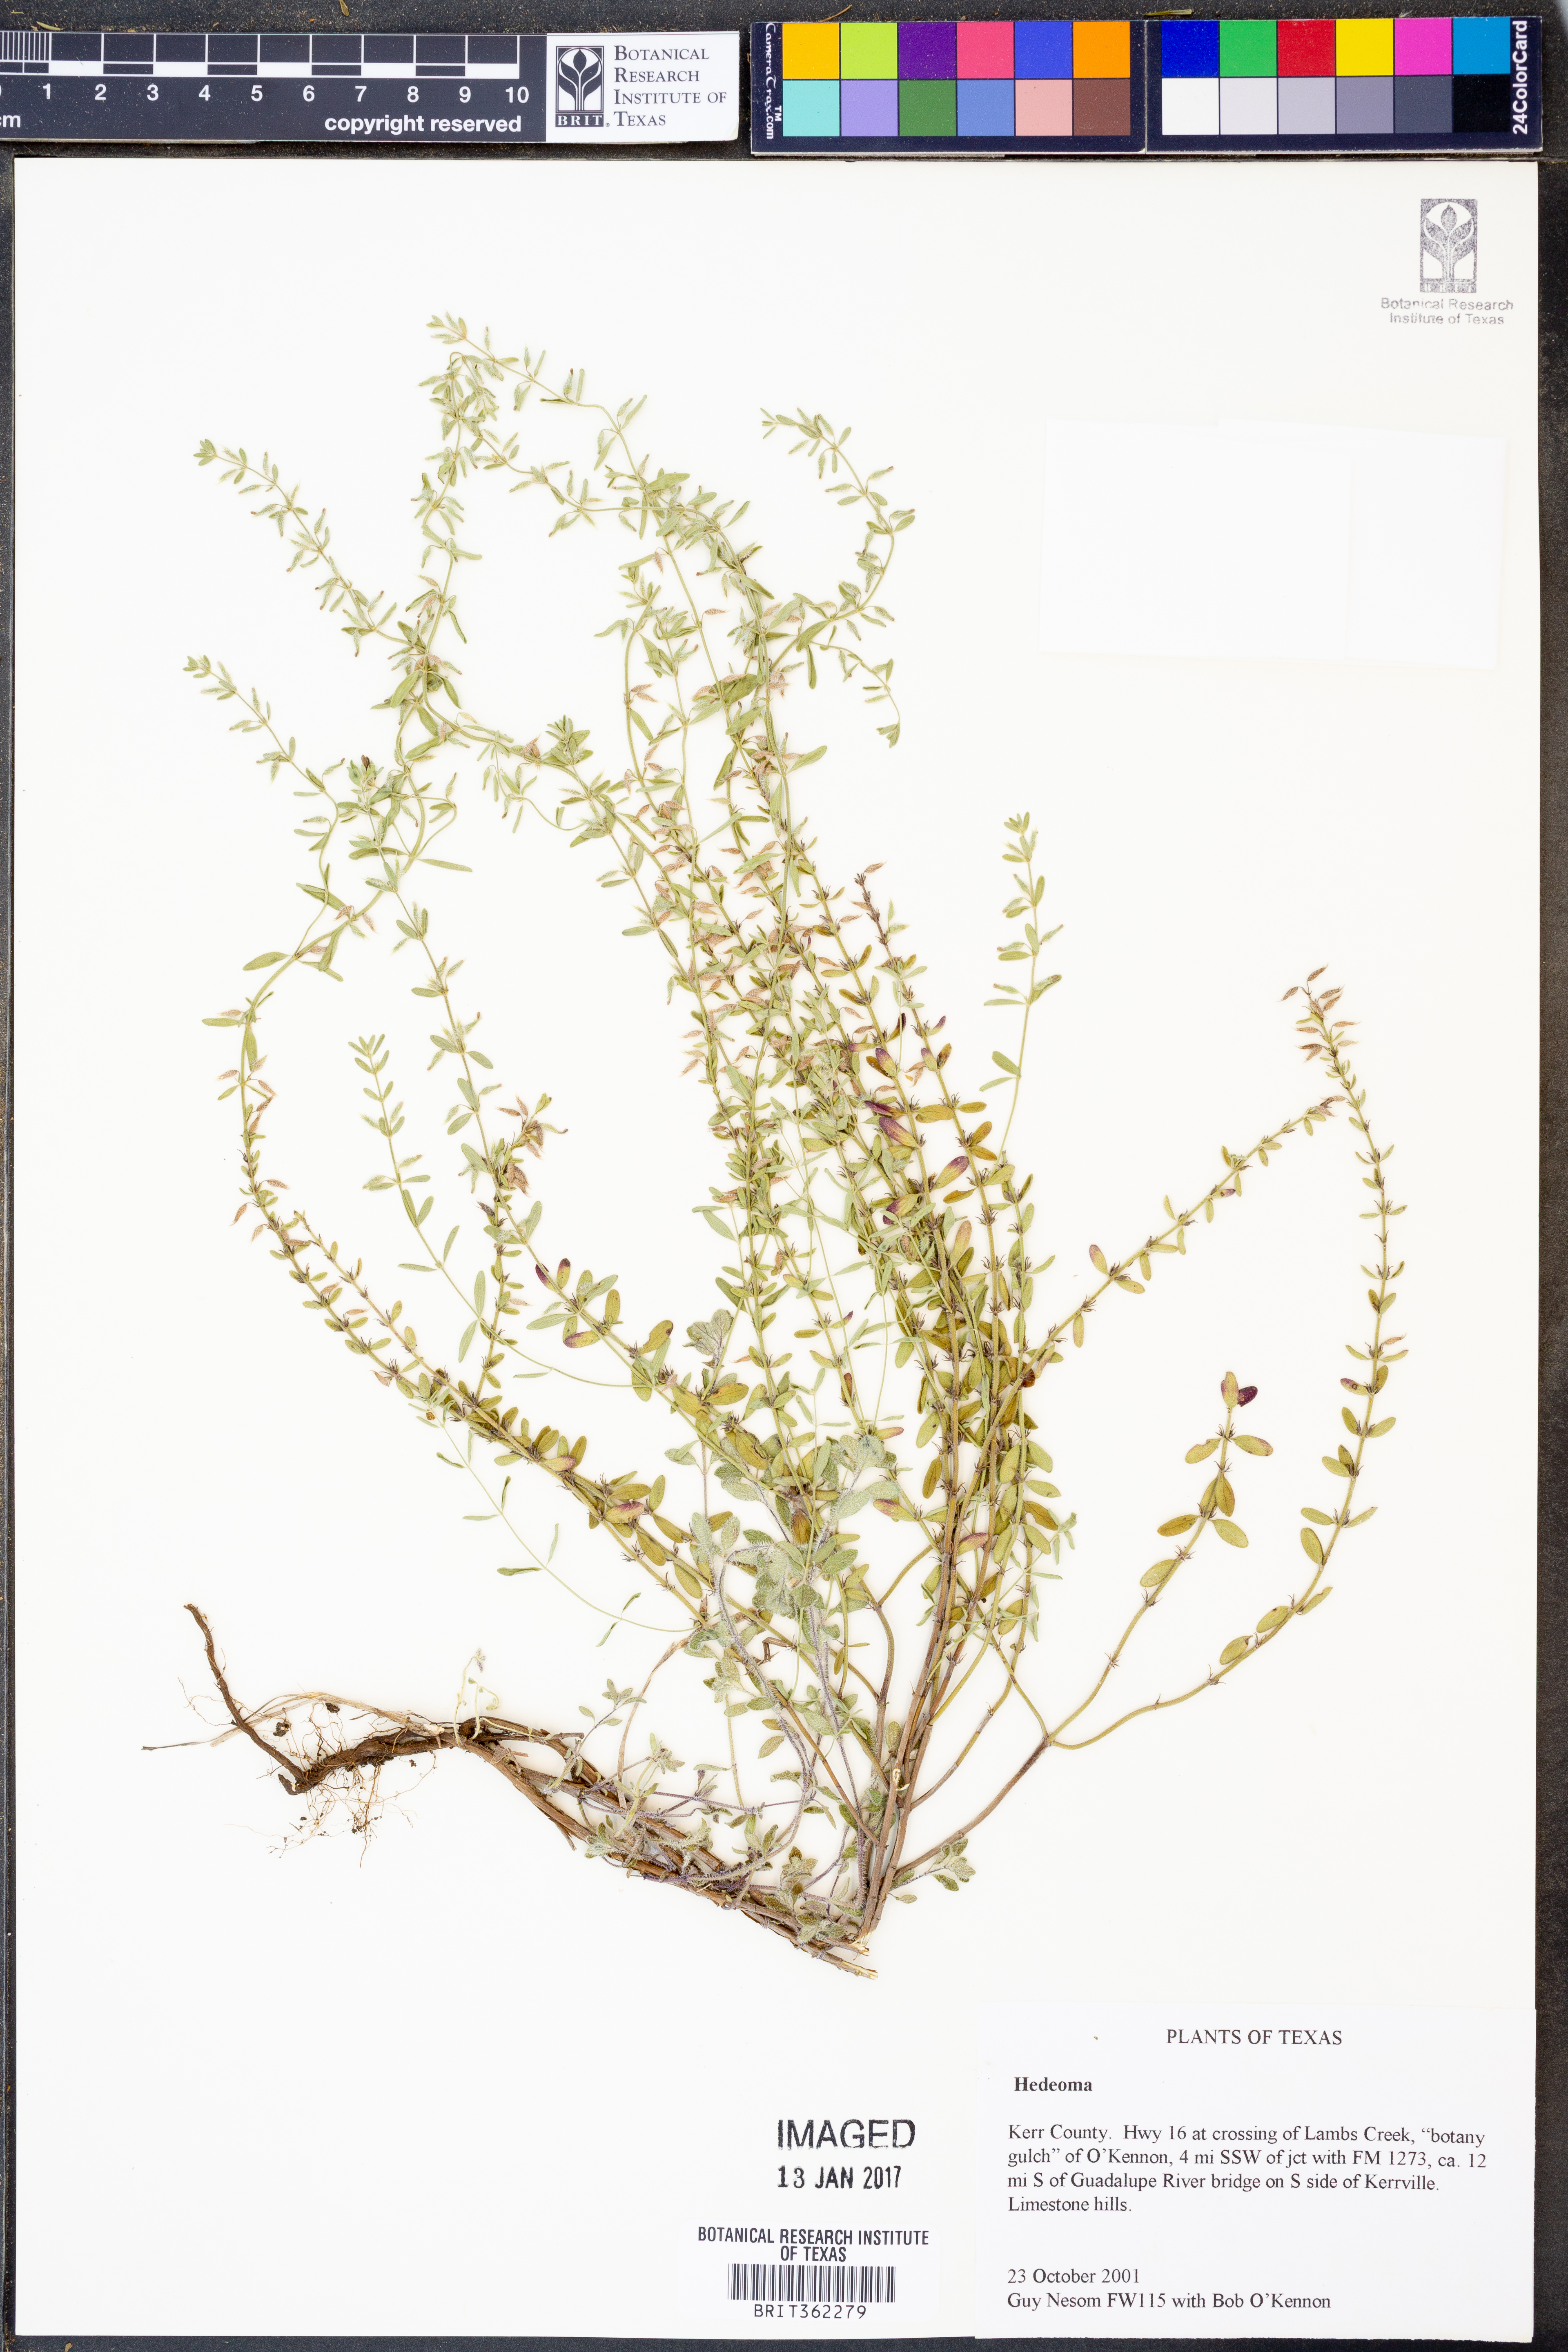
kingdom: Plantae
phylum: Tracheophyta
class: Magnoliopsida
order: Lamiales
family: Lamiaceae
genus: Hedeoma
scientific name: Hedeoma
